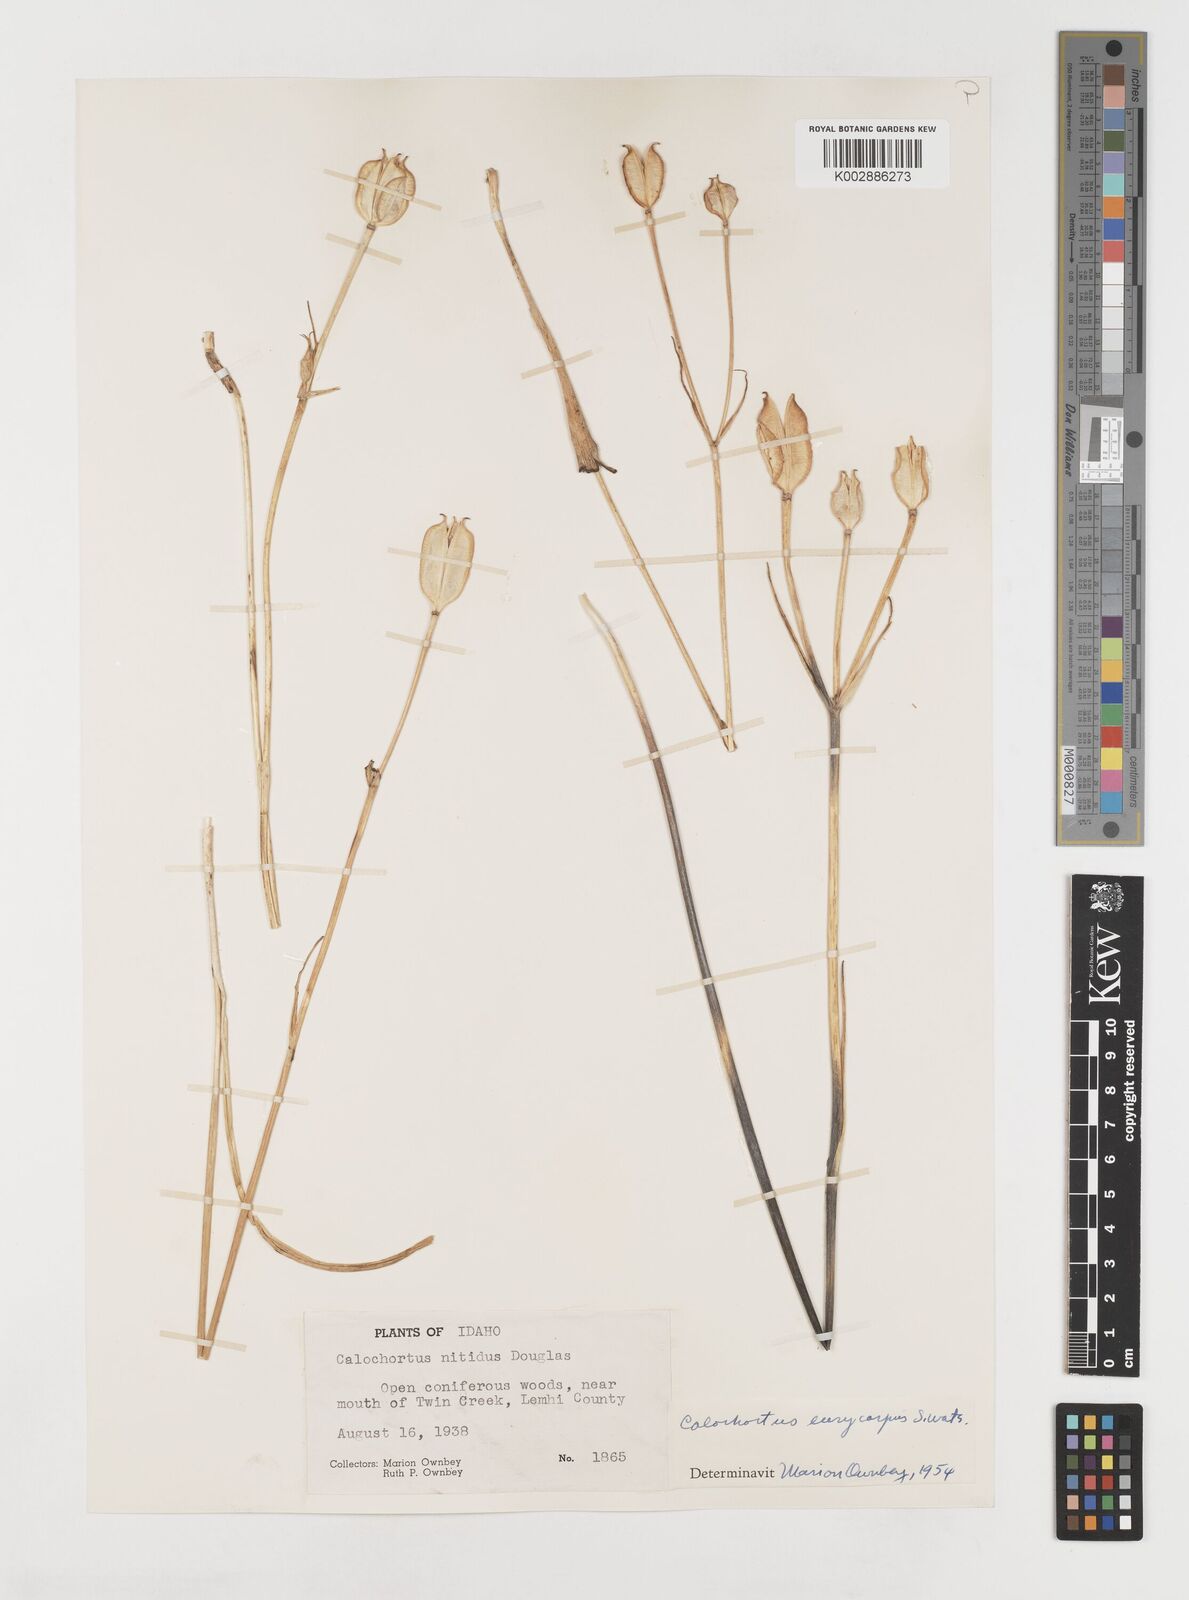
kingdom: Plantae
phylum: Tracheophyta
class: Liliopsida
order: Liliales
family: Liliaceae
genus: Calochortus
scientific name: Calochortus eurycarpus
